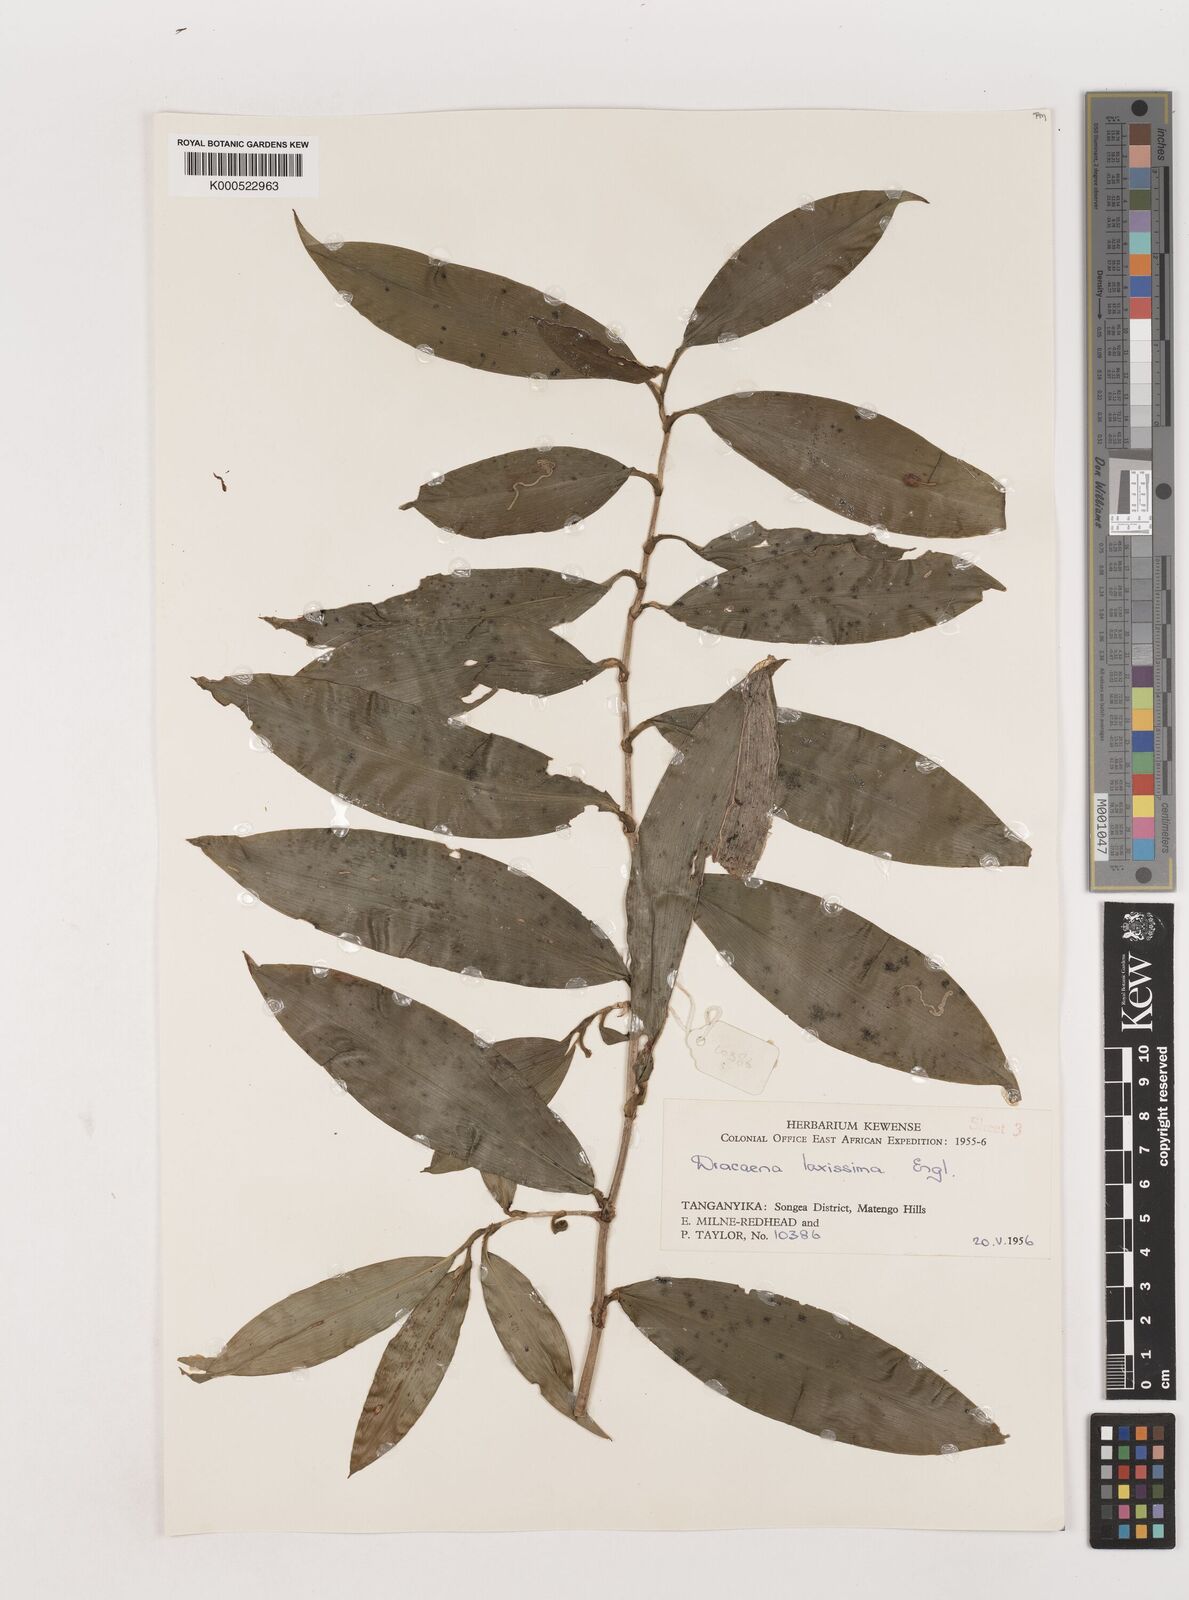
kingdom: Plantae
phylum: Tracheophyta
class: Liliopsida
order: Asparagales
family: Asparagaceae
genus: Dracaena
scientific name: Dracaena laxissima
